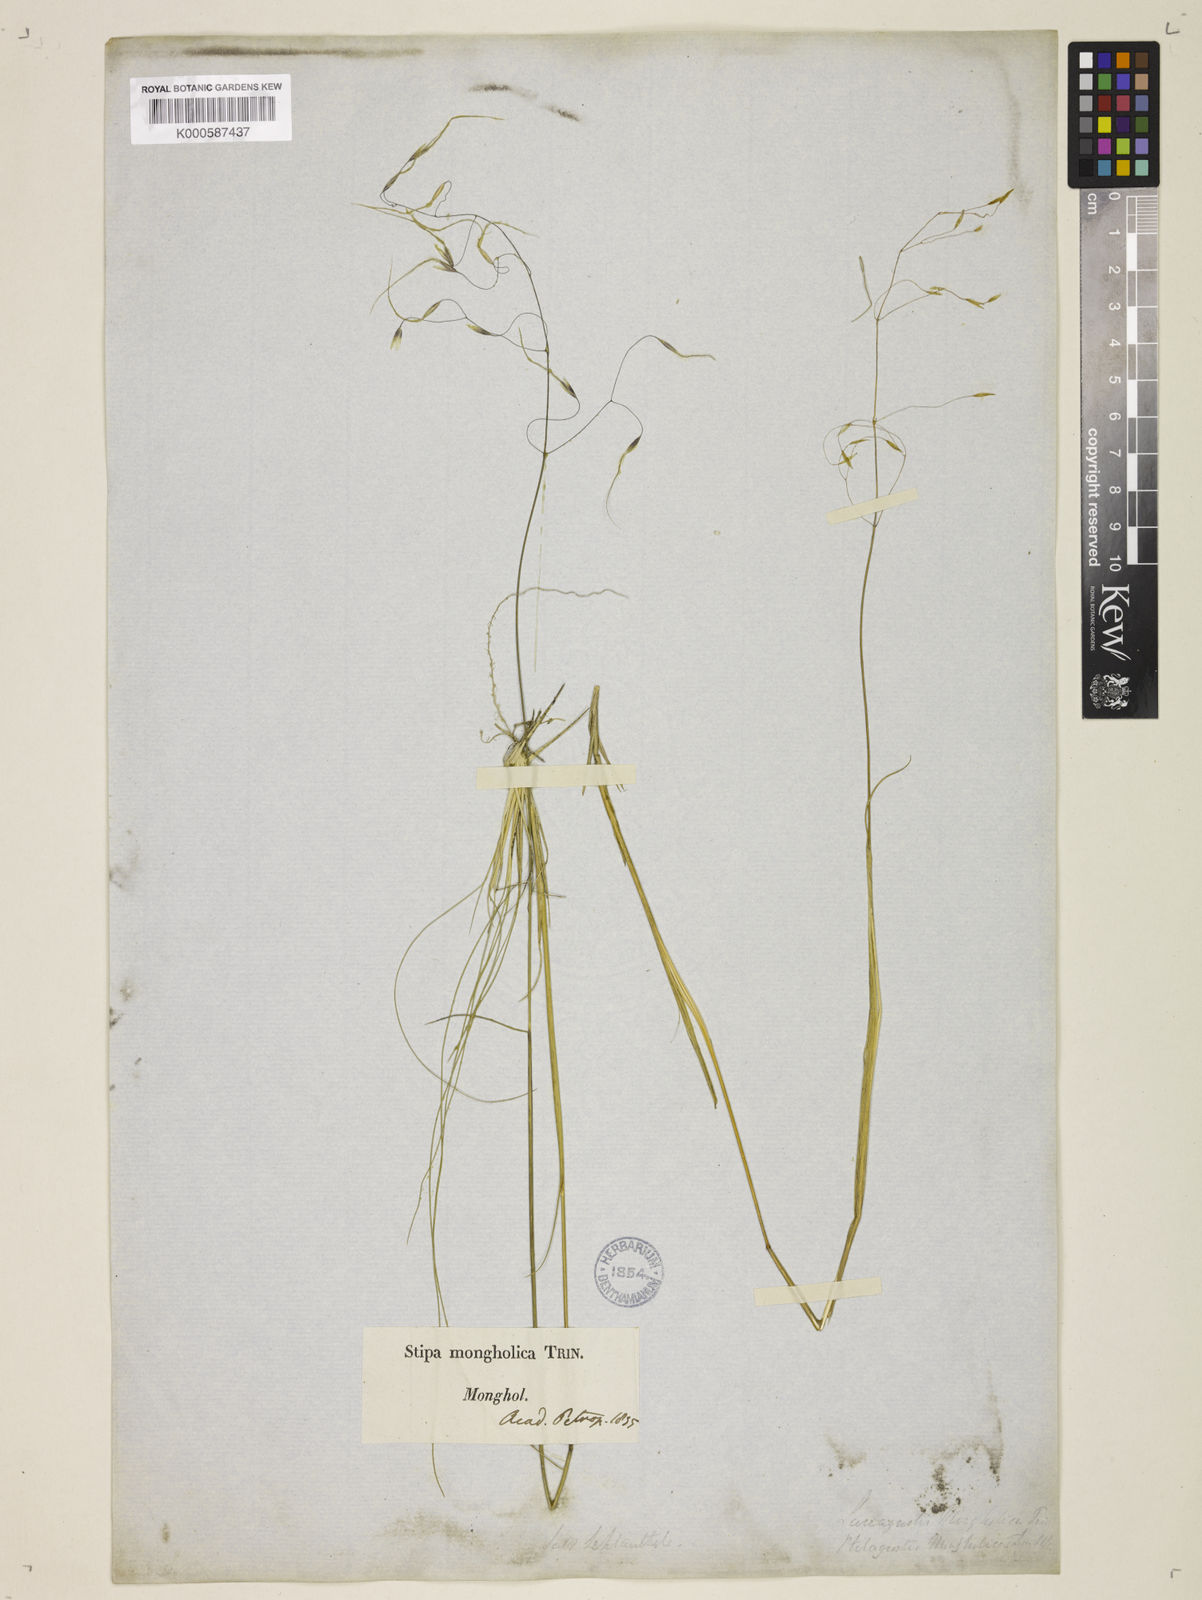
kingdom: Plantae
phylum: Tracheophyta
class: Liliopsida
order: Poales
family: Poaceae
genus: Ptilagrostis
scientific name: Ptilagrostis mongholica
